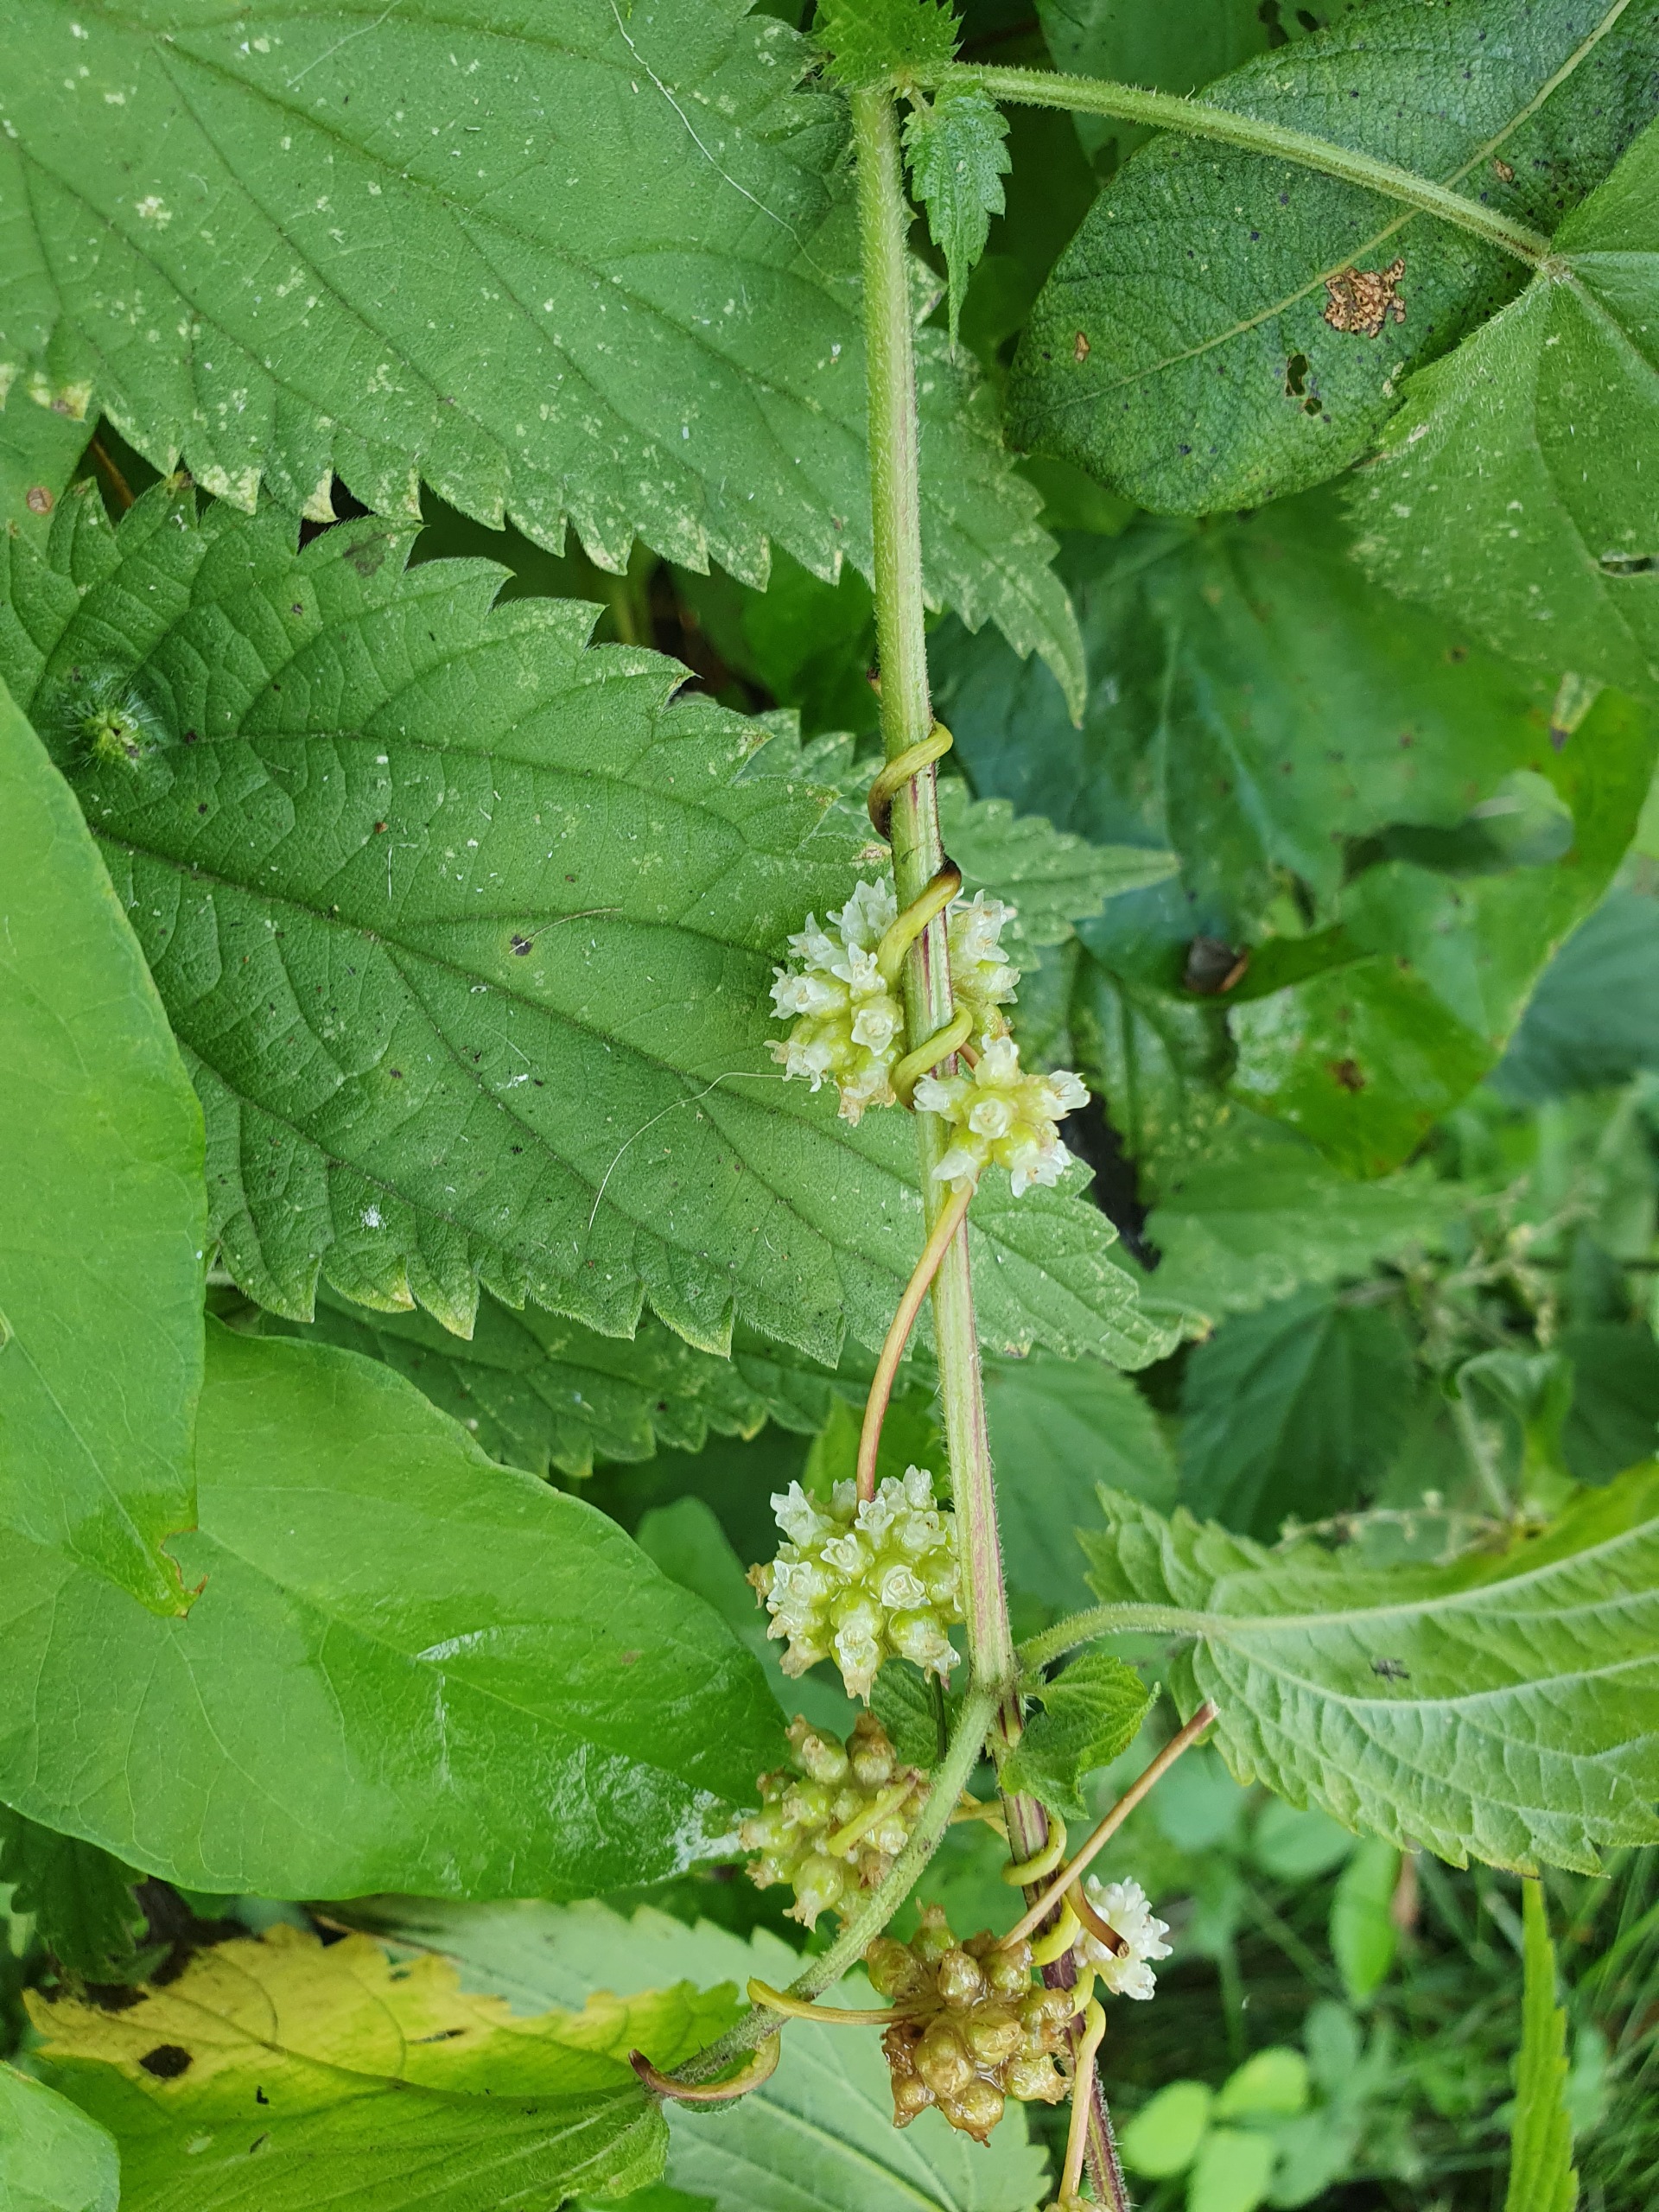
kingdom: Plantae
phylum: Tracheophyta
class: Magnoliopsida
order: Solanales
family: Convolvulaceae
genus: Cuscuta
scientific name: Cuscuta europaea
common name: Nælde-silke
